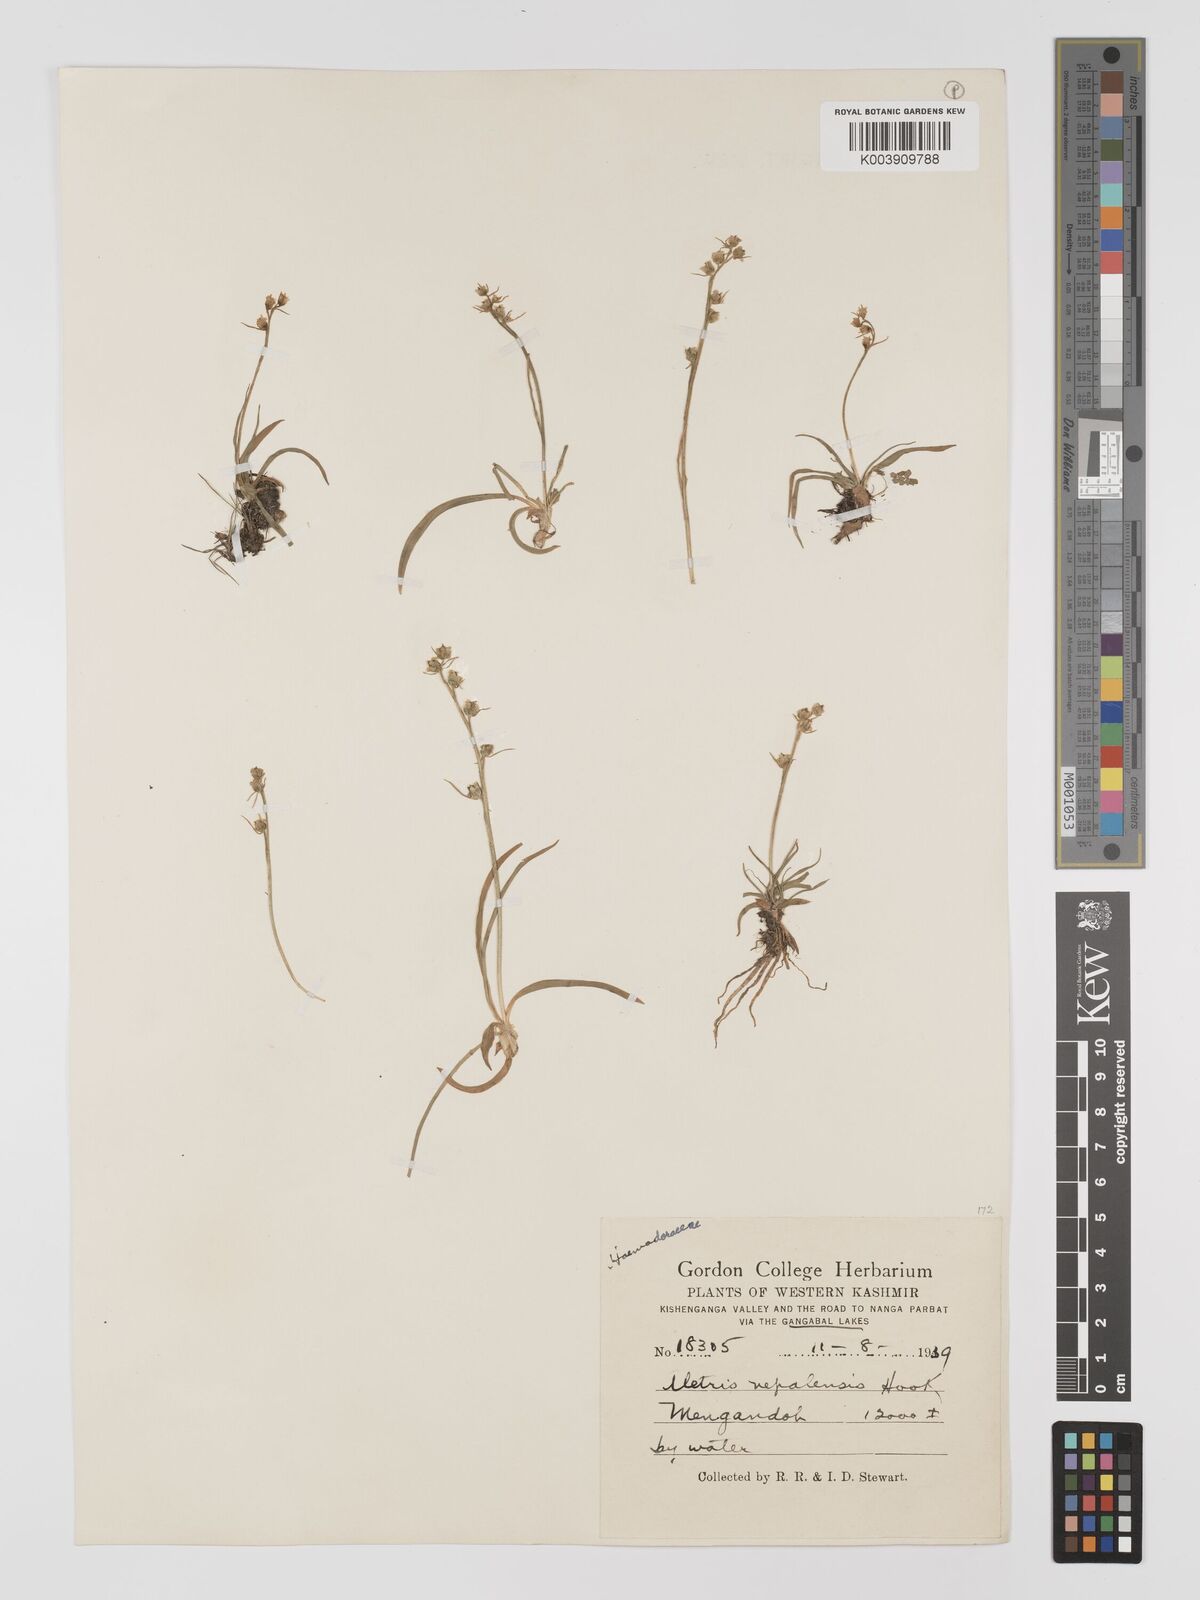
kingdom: Plantae
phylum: Tracheophyta
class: Liliopsida
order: Dioscoreales
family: Nartheciaceae
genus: Aletris
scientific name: Aletris pauciflora
